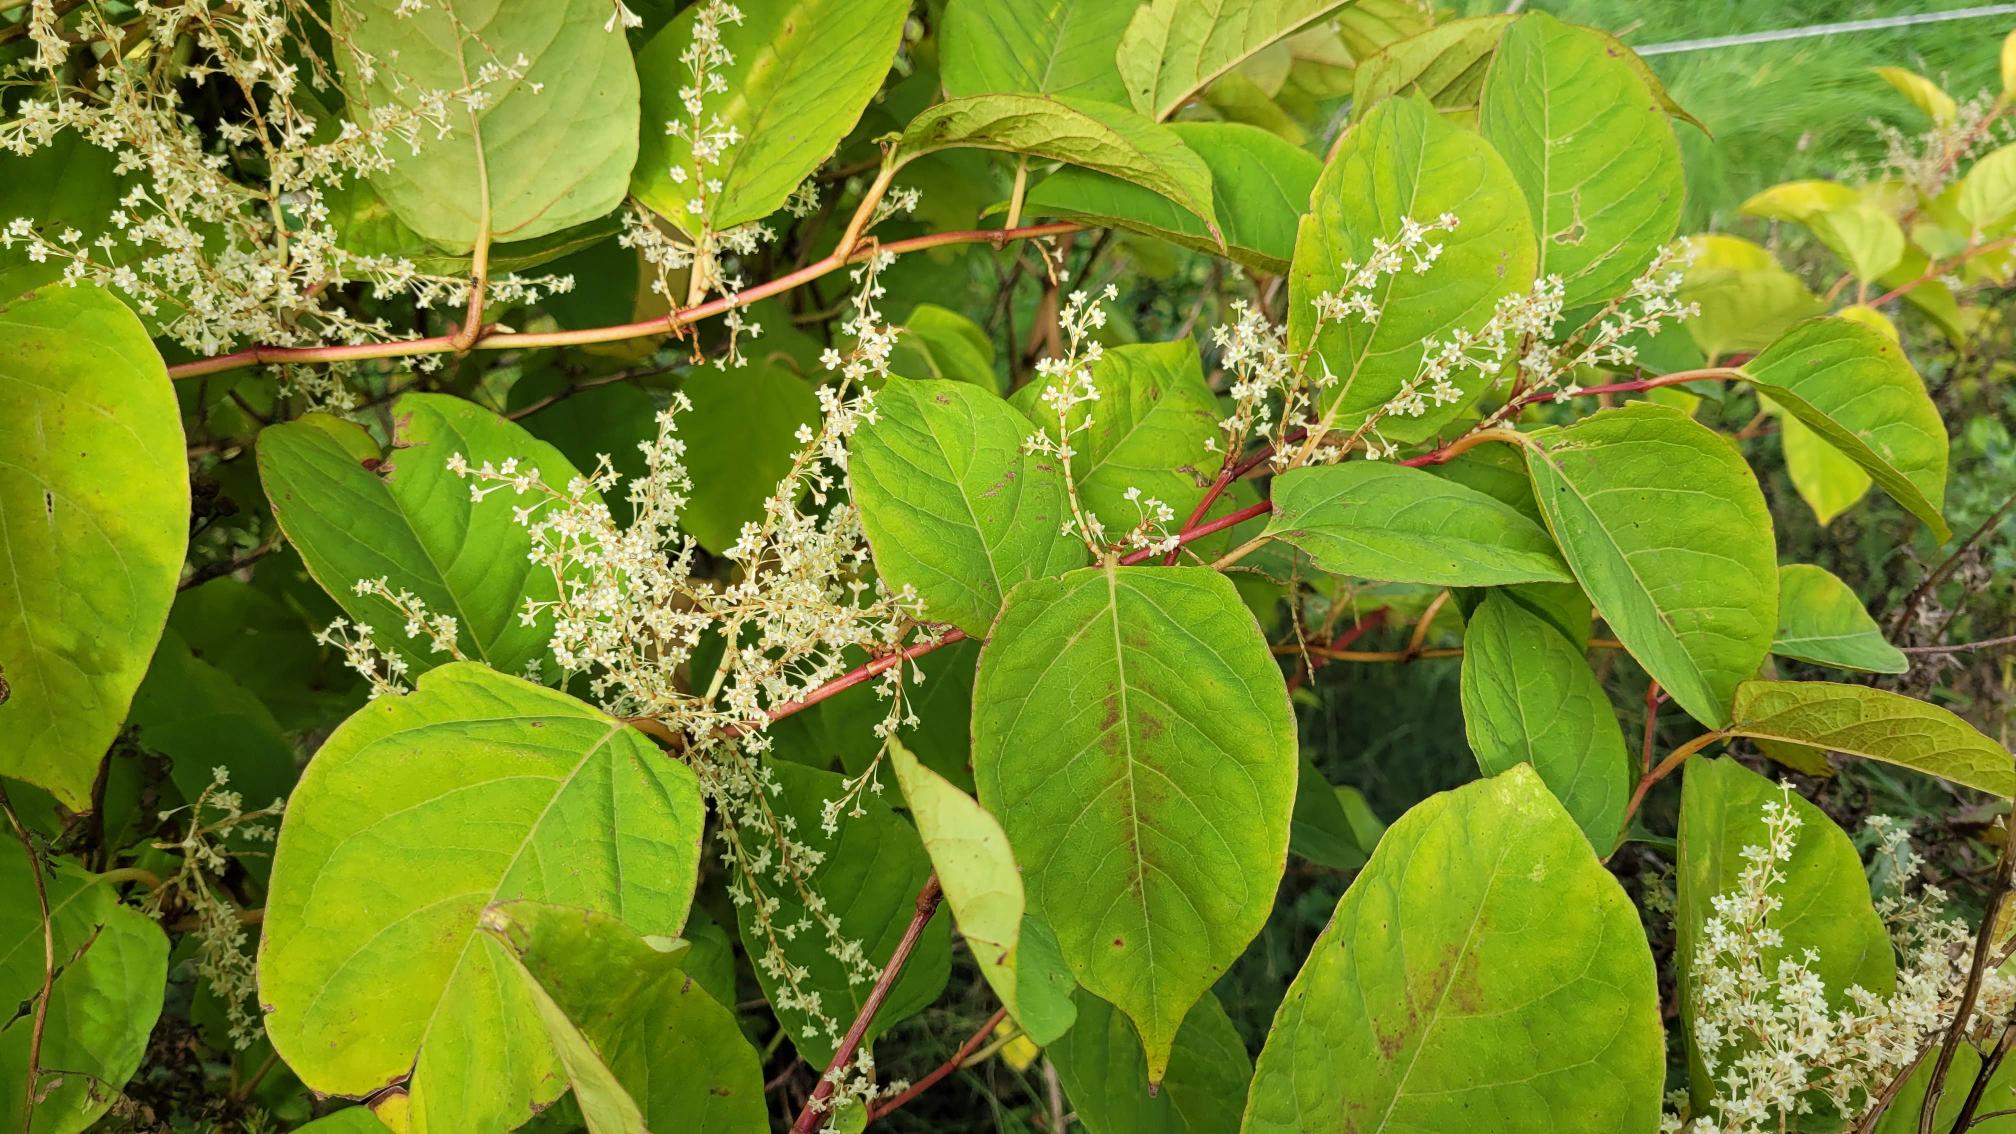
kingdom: Plantae
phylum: Tracheophyta
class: Magnoliopsida
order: Caryophyllales
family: Polygonaceae
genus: Reynoutria
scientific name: Reynoutria japonica
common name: Japan-pileurt
